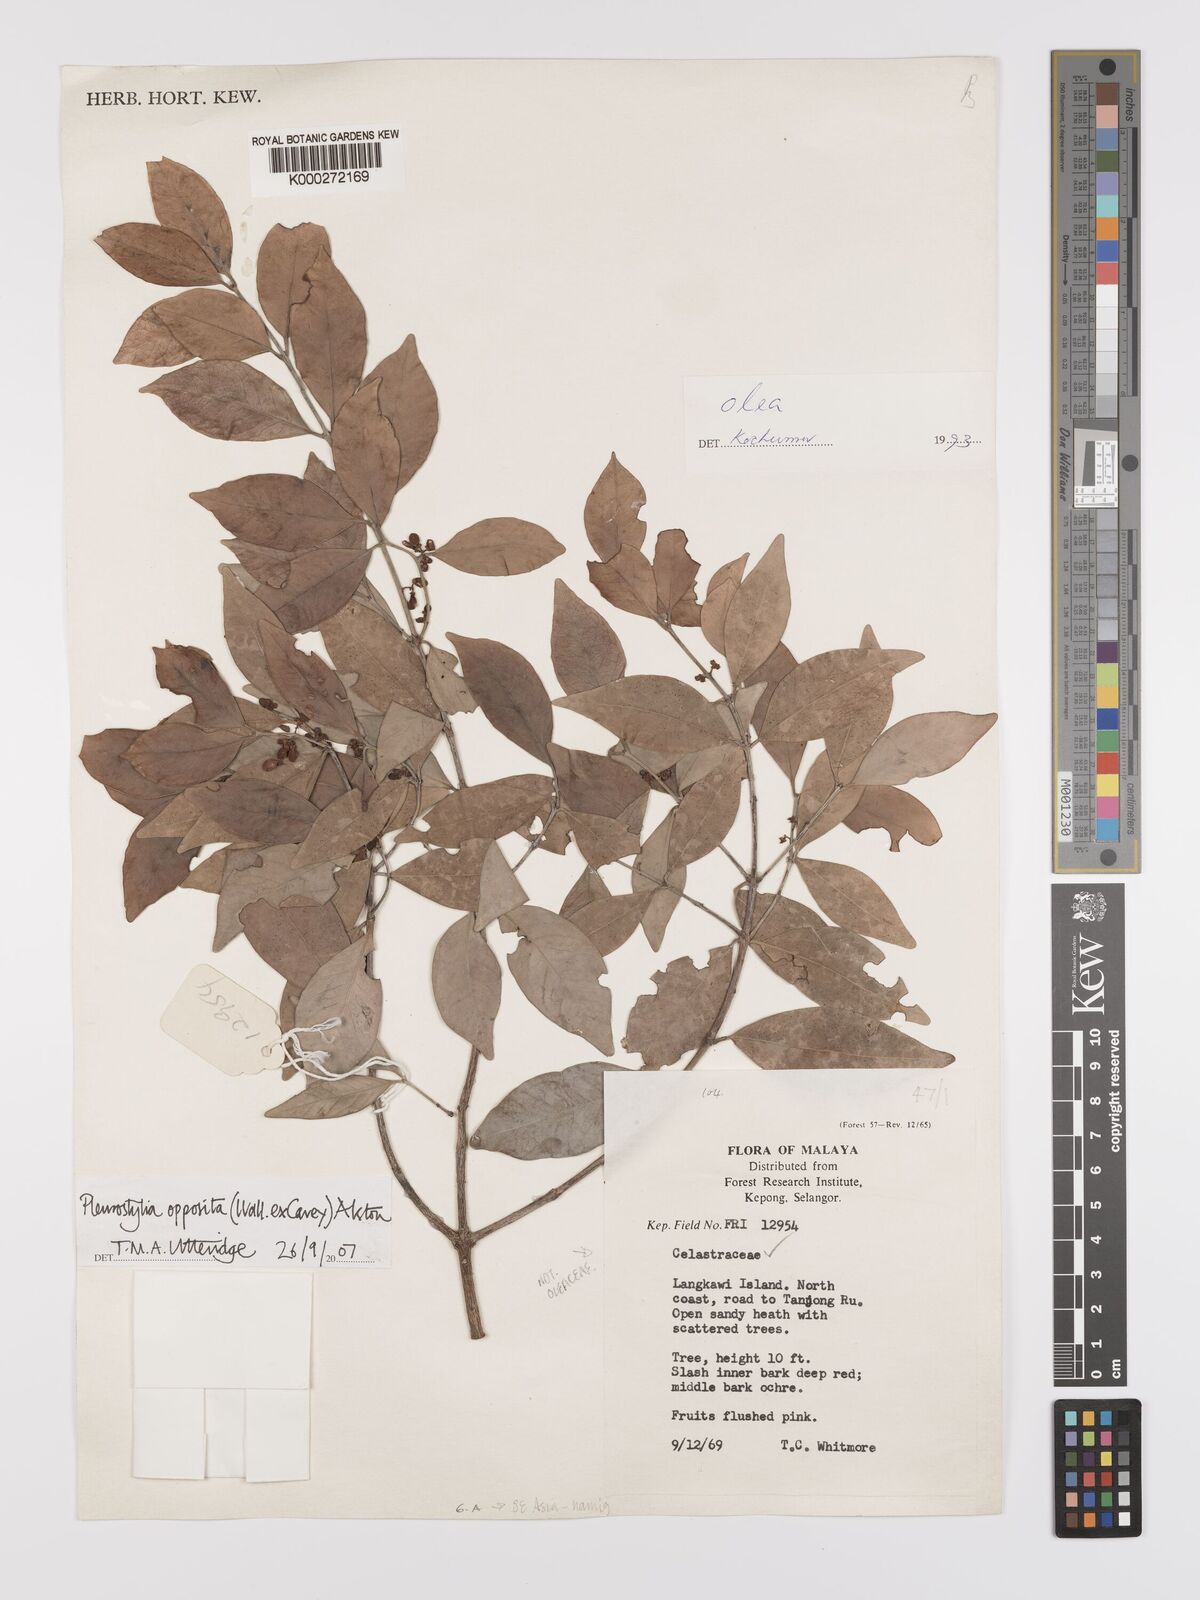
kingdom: Plantae
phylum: Tracheophyta
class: Magnoliopsida
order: Celastrales
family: Celastraceae
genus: Pleurostylia
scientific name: Pleurostylia opposita
